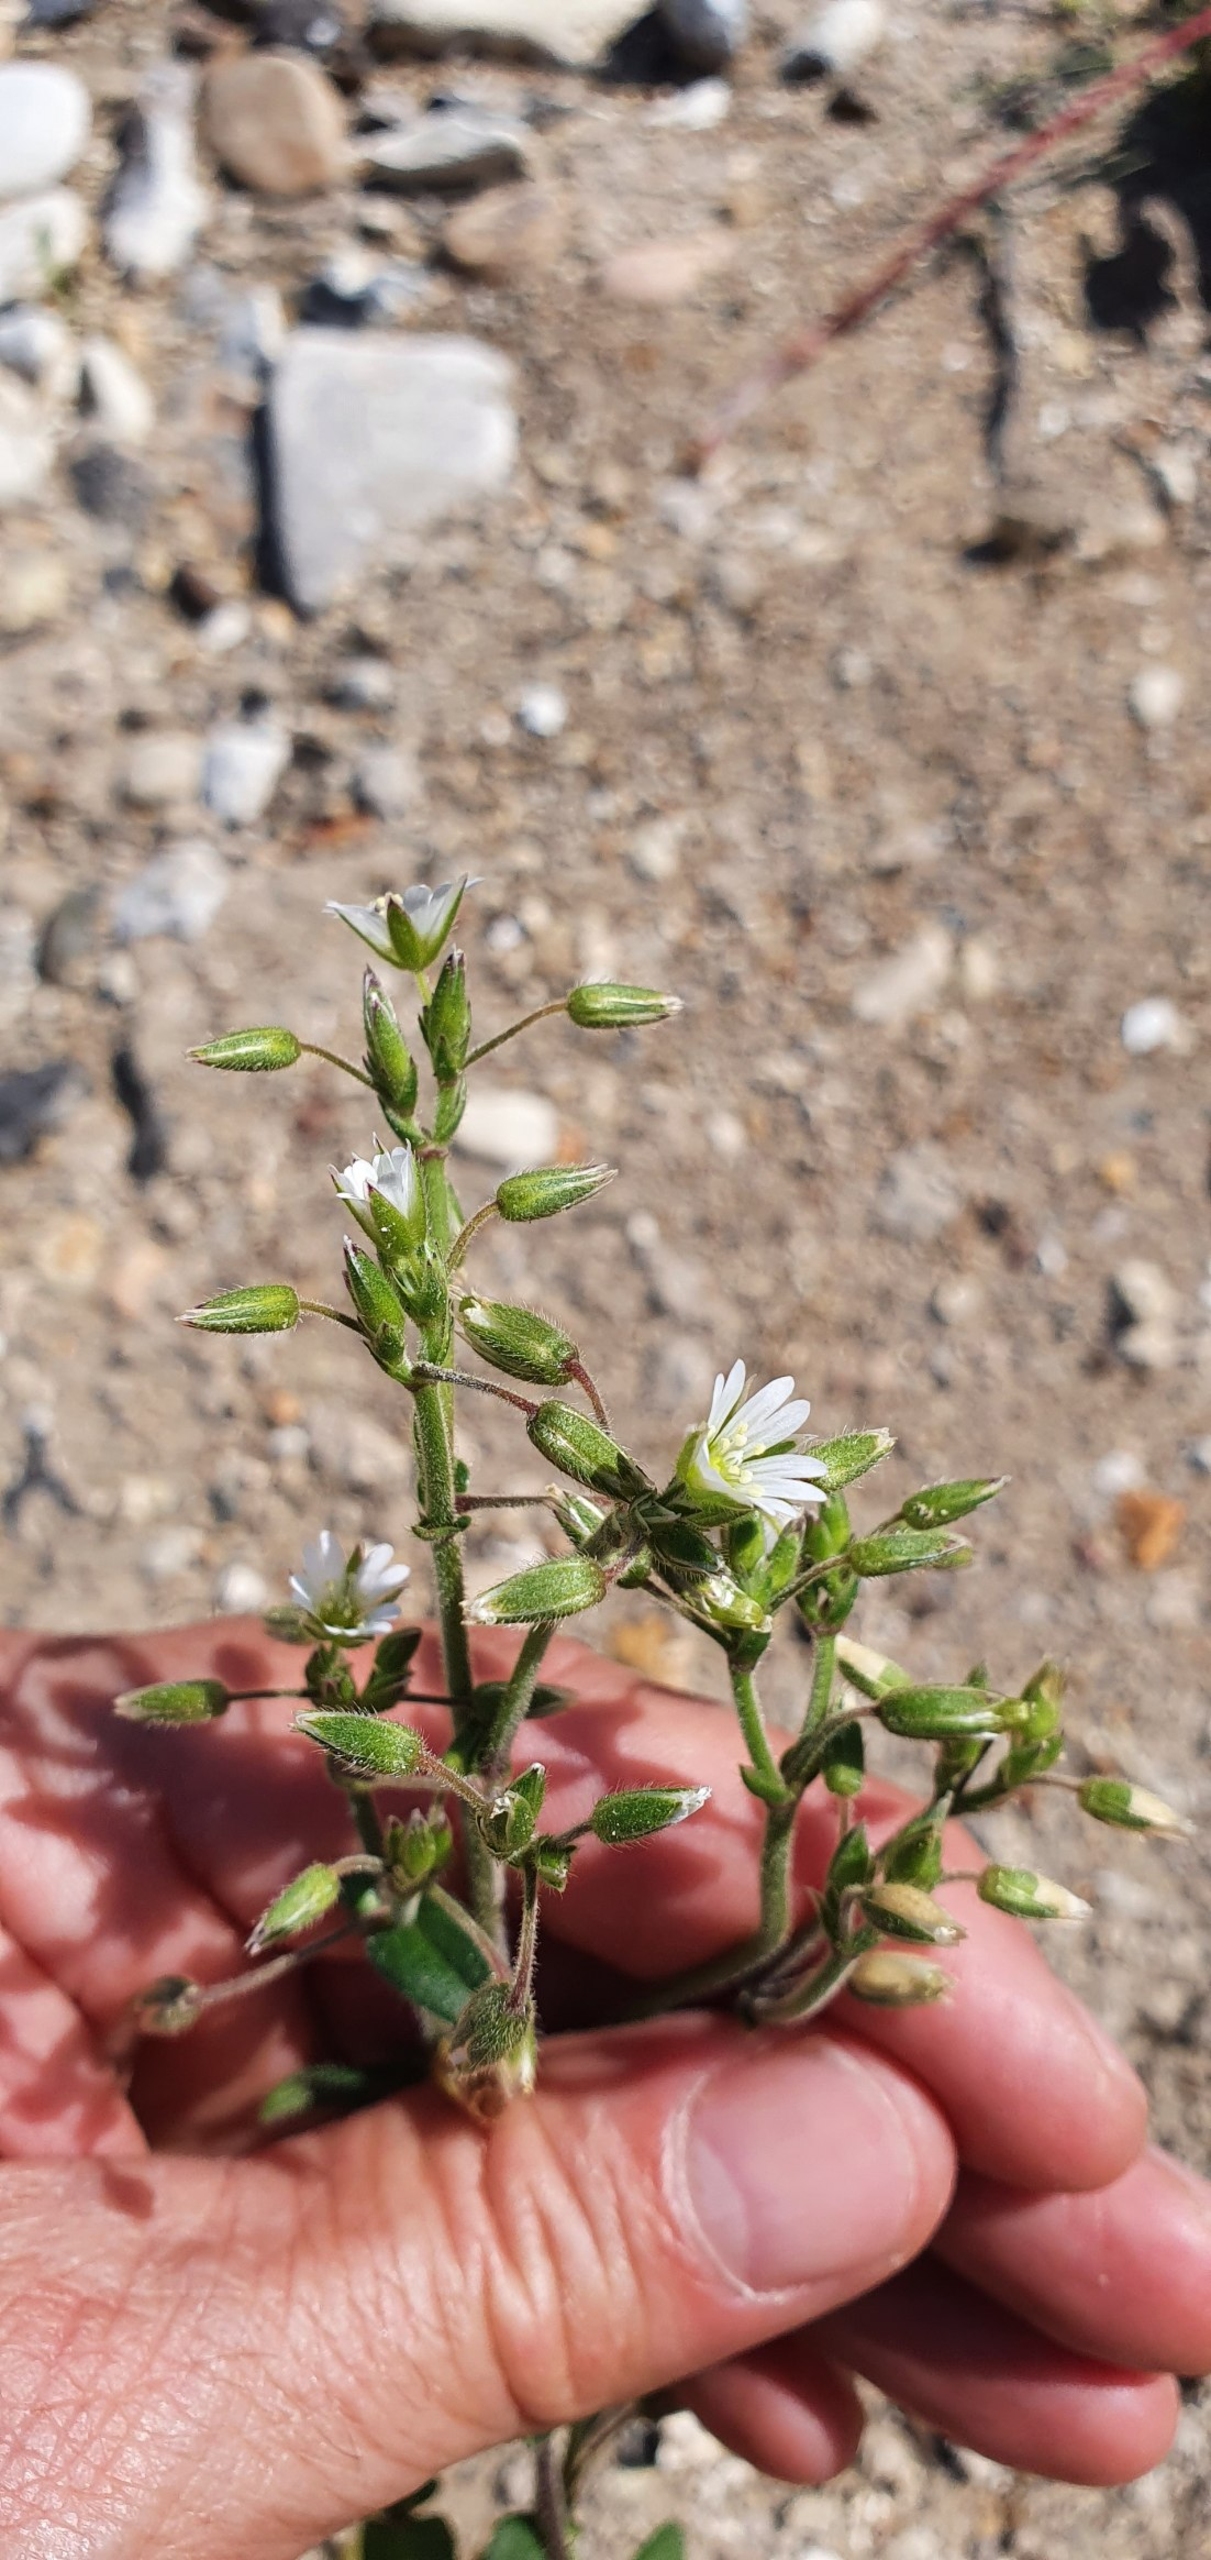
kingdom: Plantae
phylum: Tracheophyta
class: Magnoliopsida
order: Caryophyllales
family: Caryophyllaceae
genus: Cerastium
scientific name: Cerastium fontanum
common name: Almindelig hønsetarm
